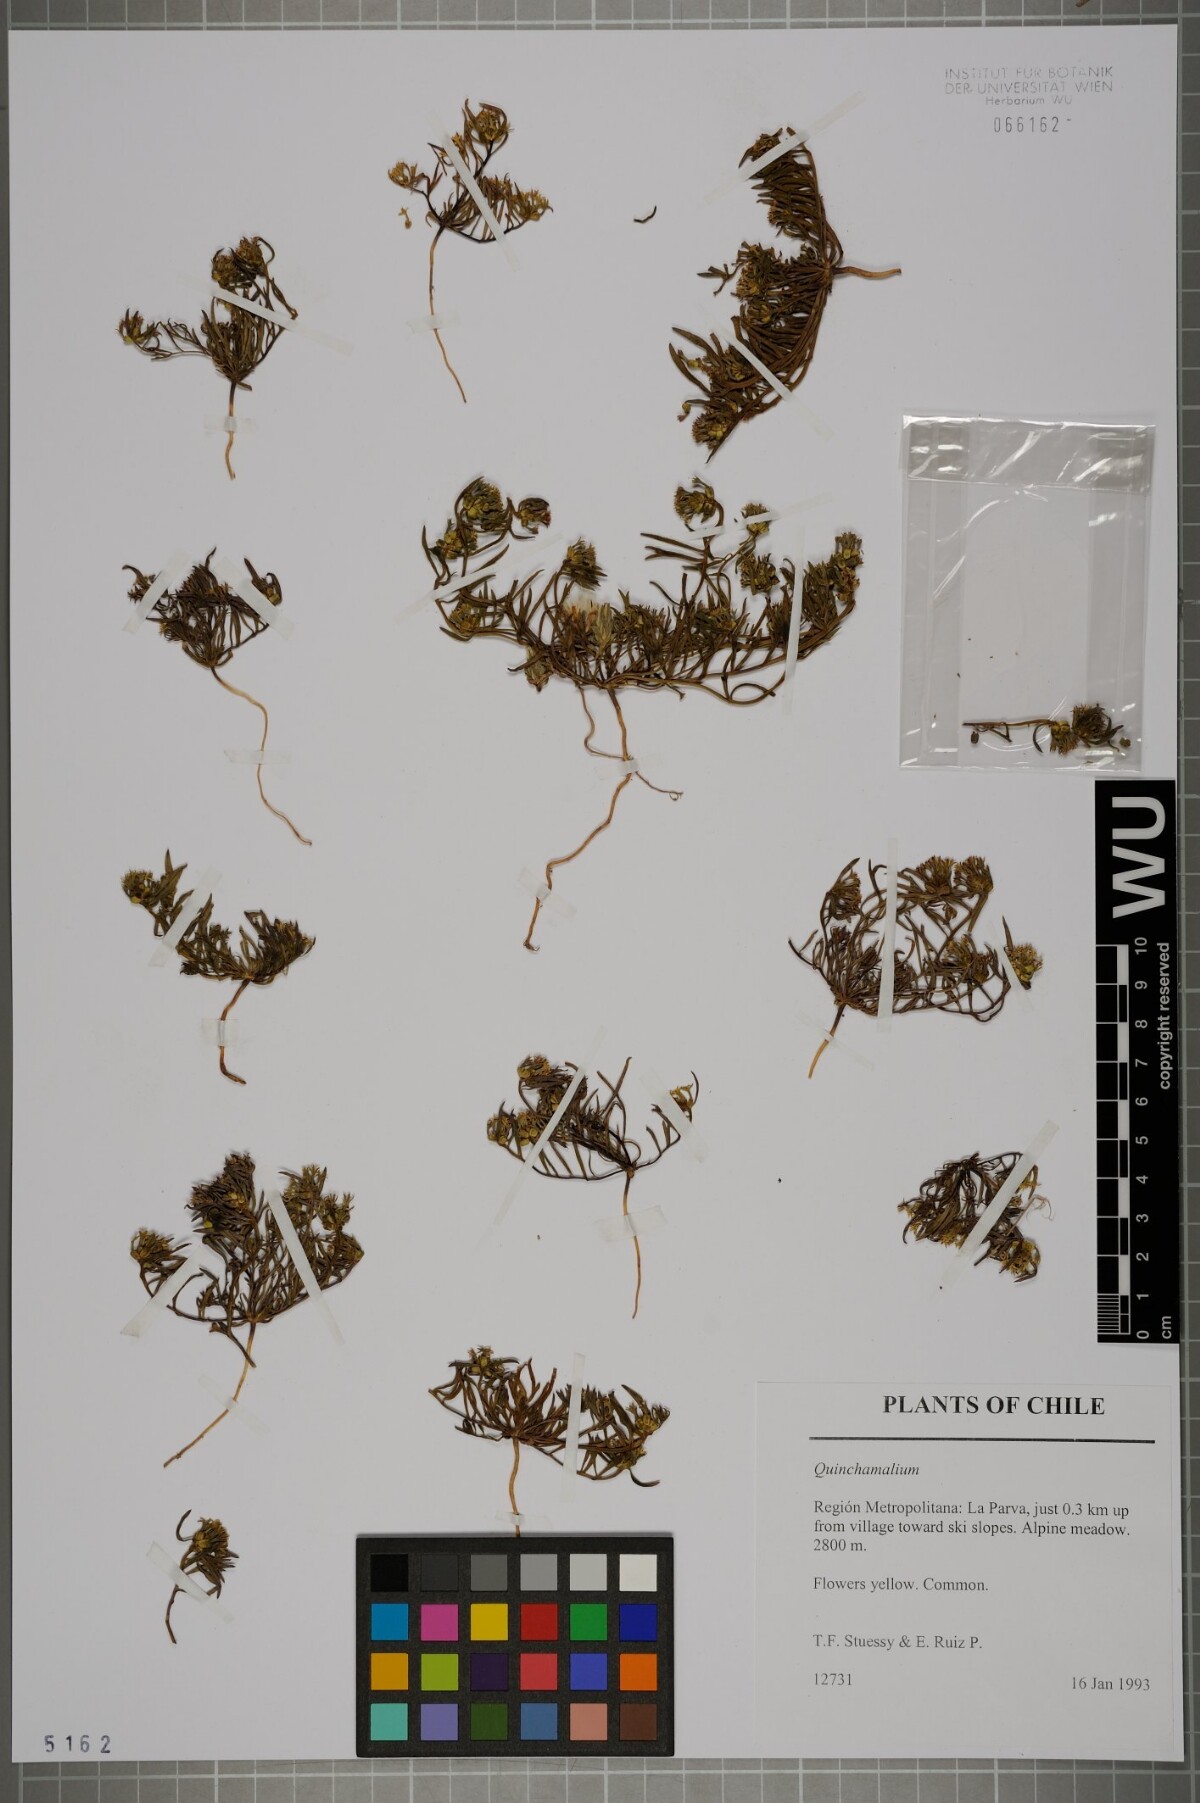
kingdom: Plantae
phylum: Tracheophyta
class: Magnoliopsida
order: Santalales
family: Schoepfiaceae
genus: Quinchamalium
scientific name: Quinchamalium
